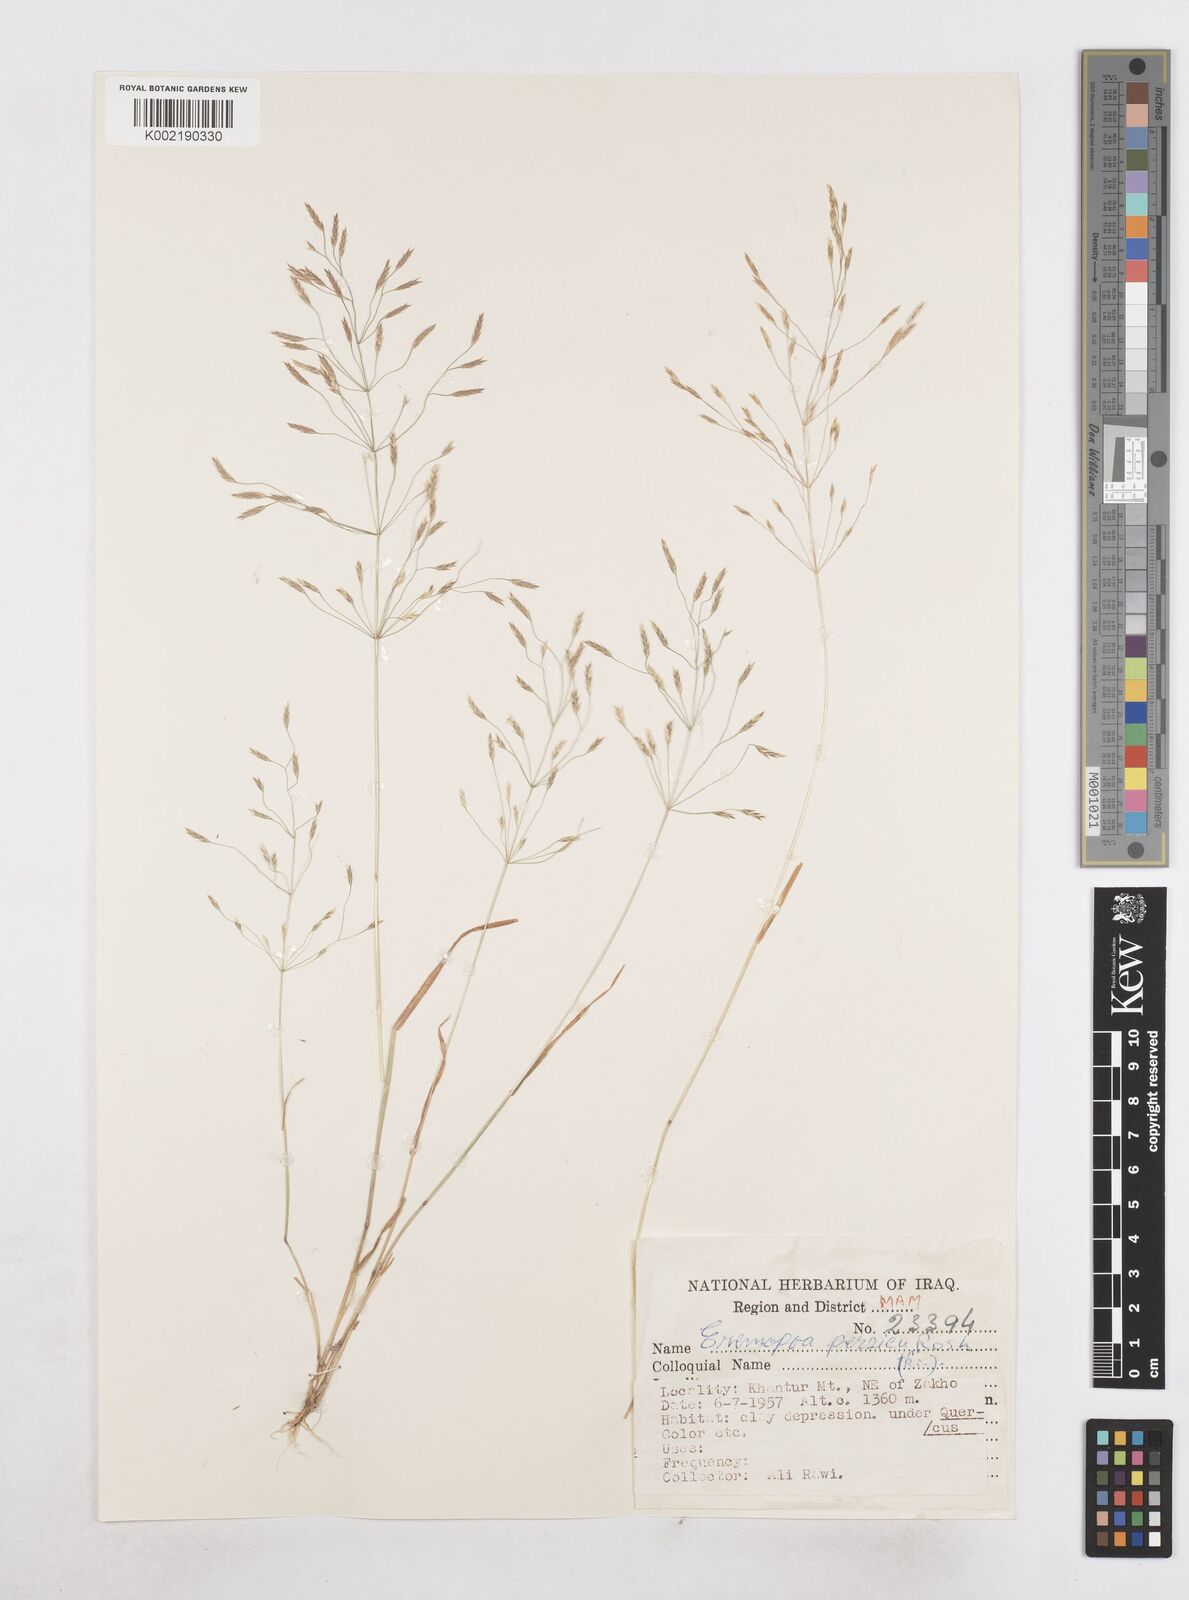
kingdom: Plantae
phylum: Tracheophyta
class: Liliopsida
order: Poales
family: Poaceae
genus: Poa
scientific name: Poa persica
